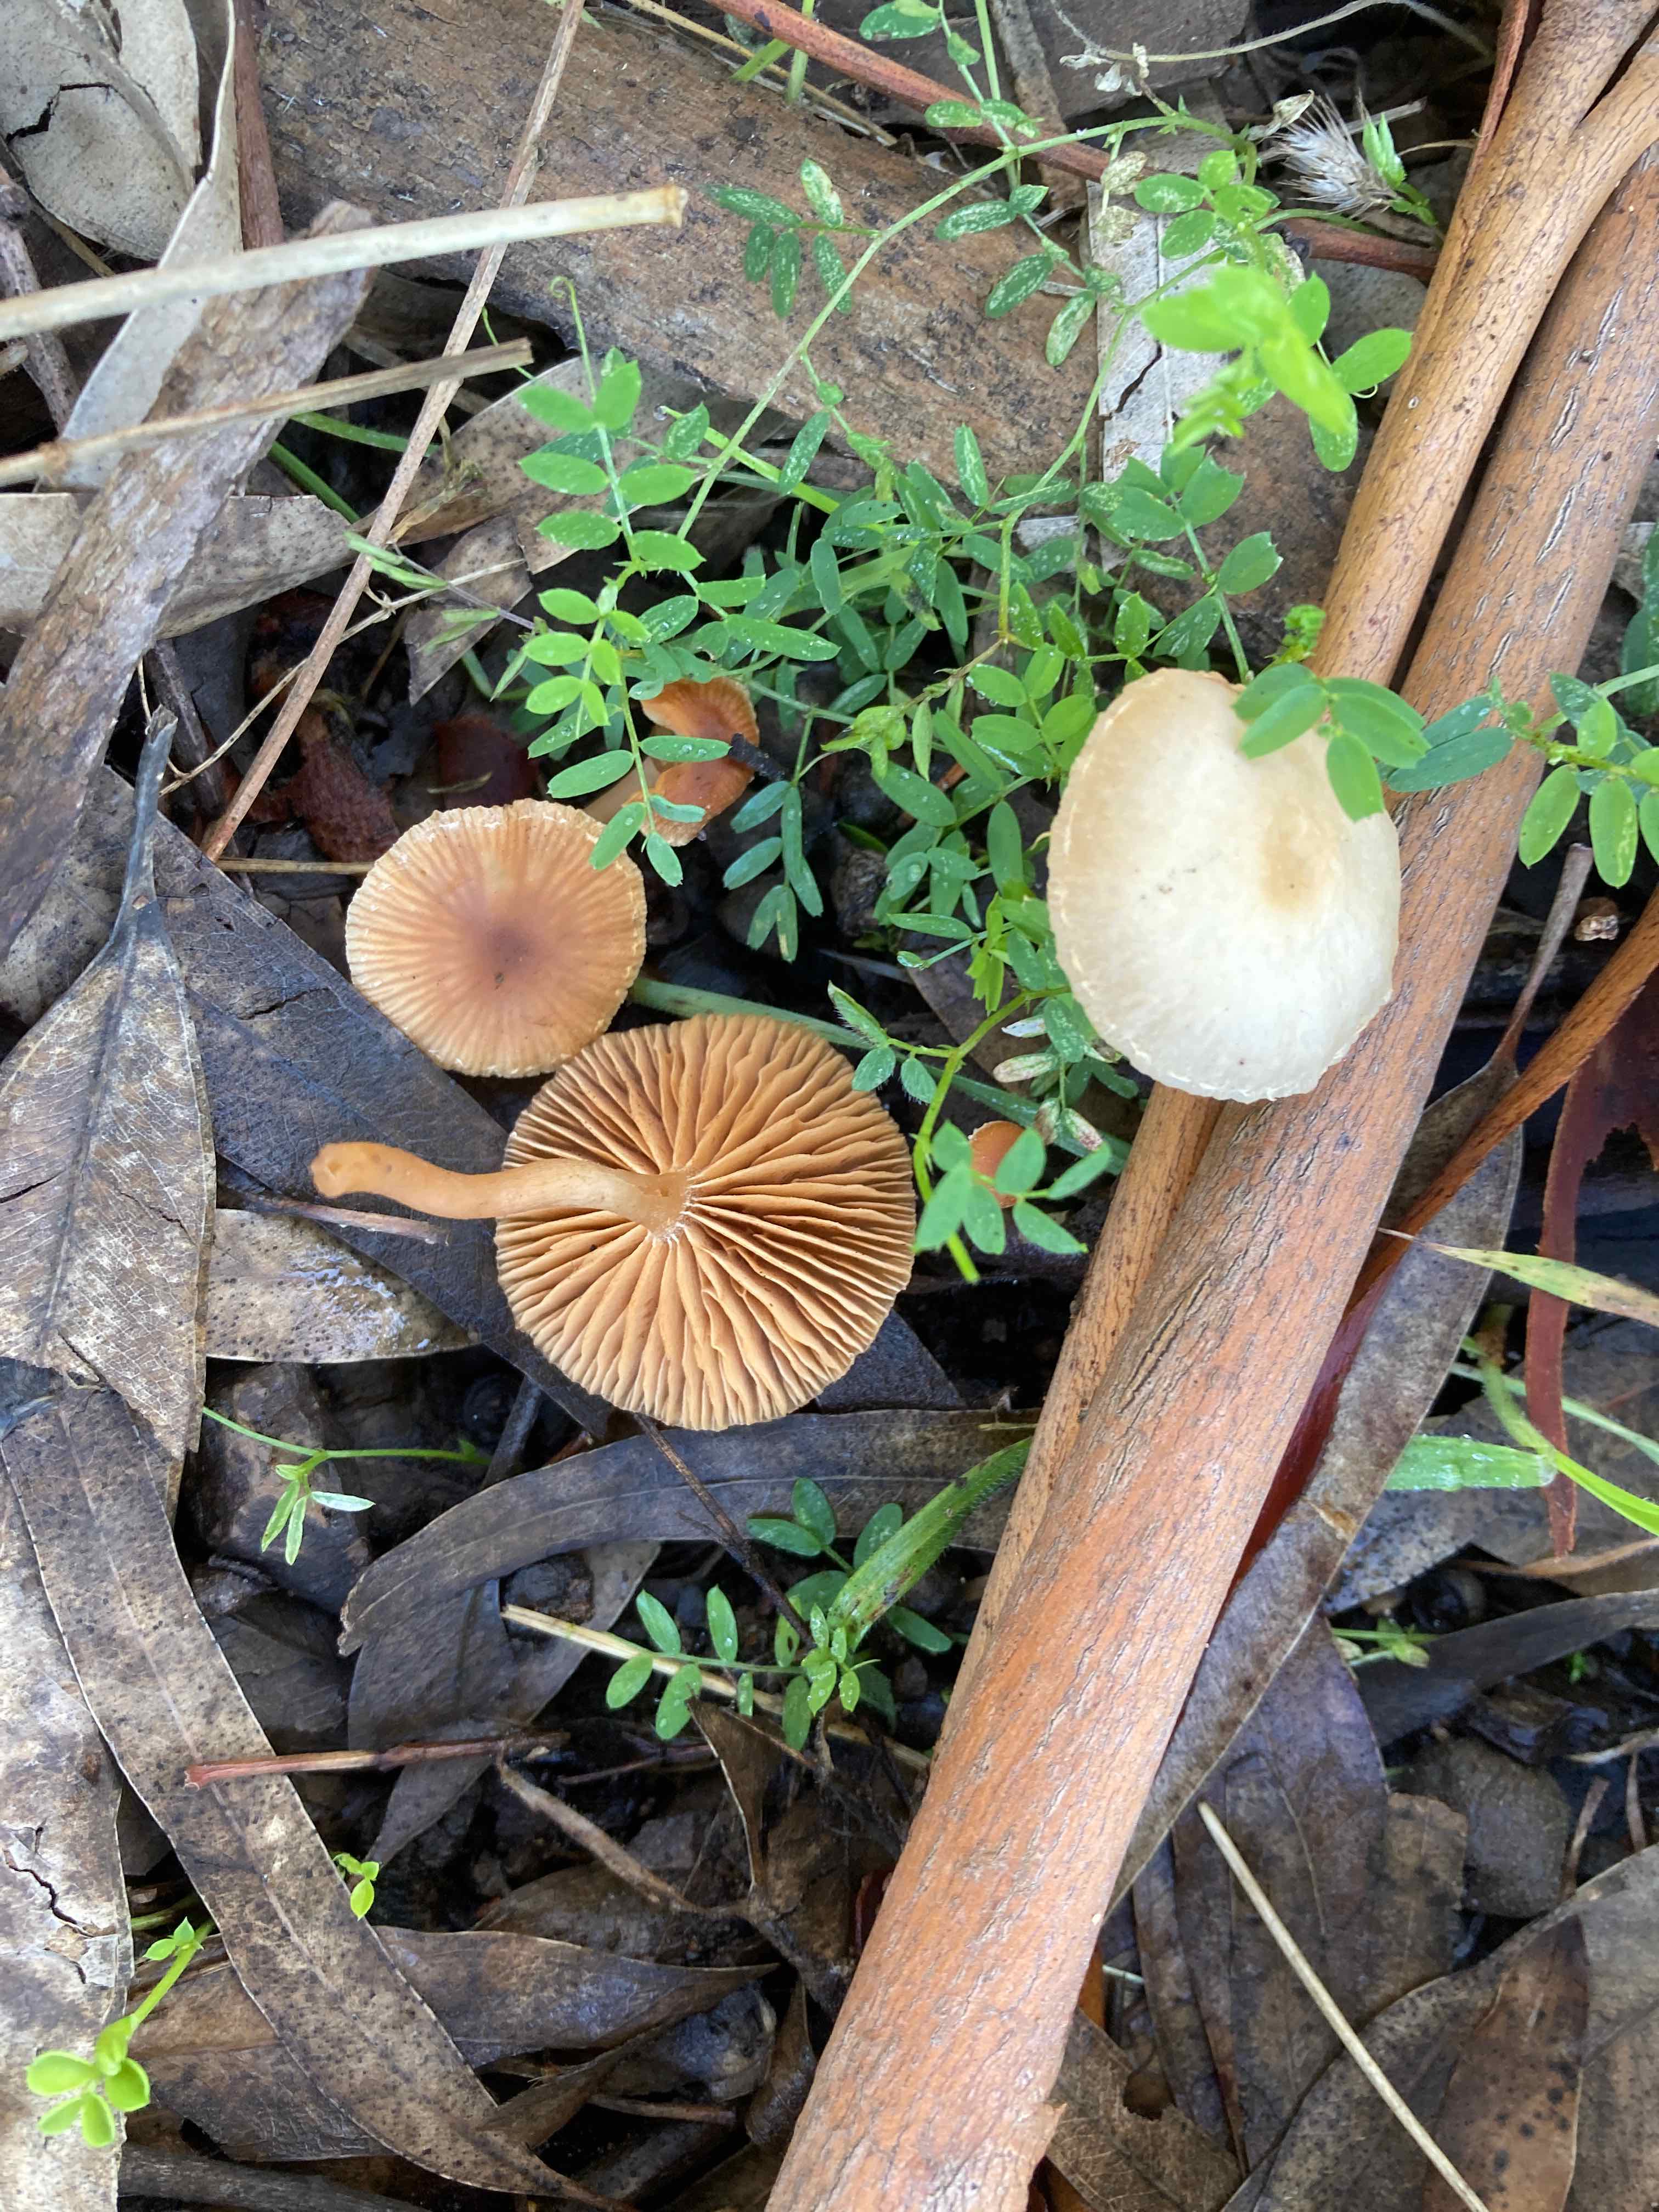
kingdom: Fungi
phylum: Basidiomycota
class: Agaricomycetes
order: Agaricales
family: Tubariaceae
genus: Tubaria
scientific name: Tubaria furfuracea
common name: kliddet fnughat
